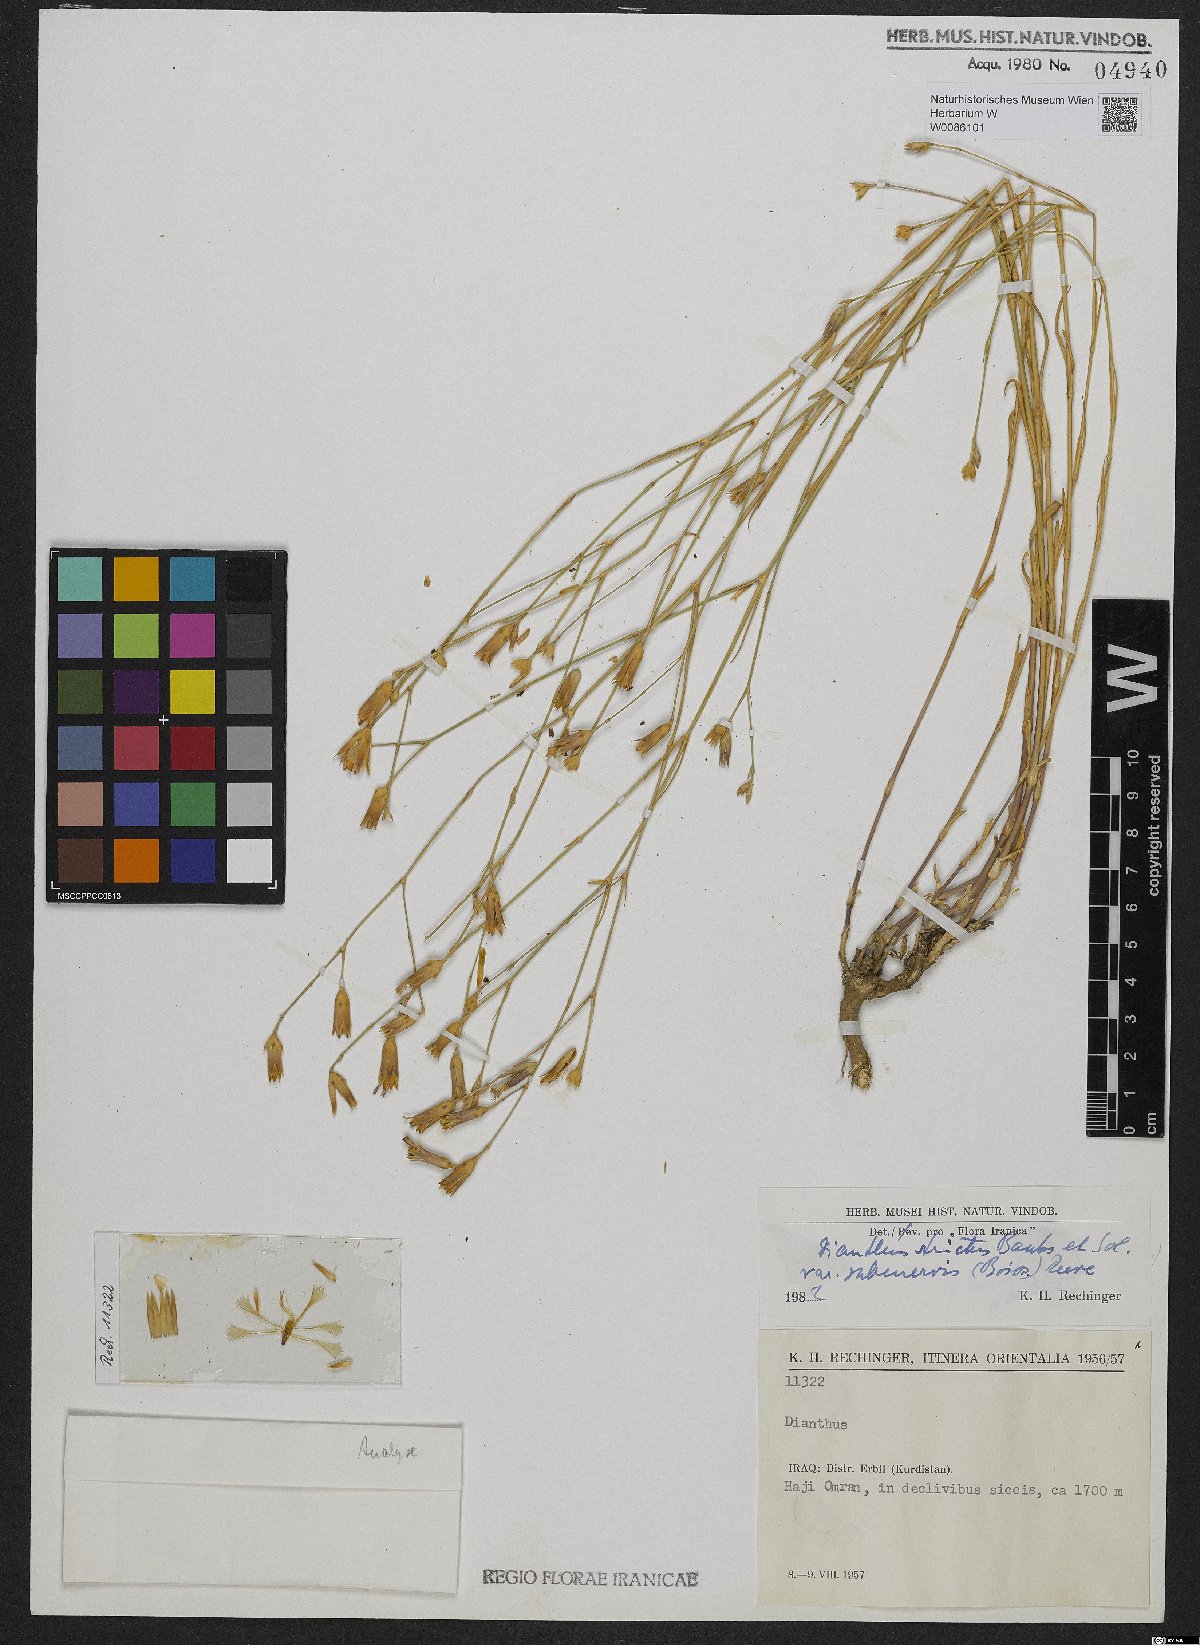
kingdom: Plantae
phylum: Tracheophyta
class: Magnoliopsida
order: Caryophyllales
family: Caryophyllaceae
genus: Dianthus
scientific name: Dianthus strictus
